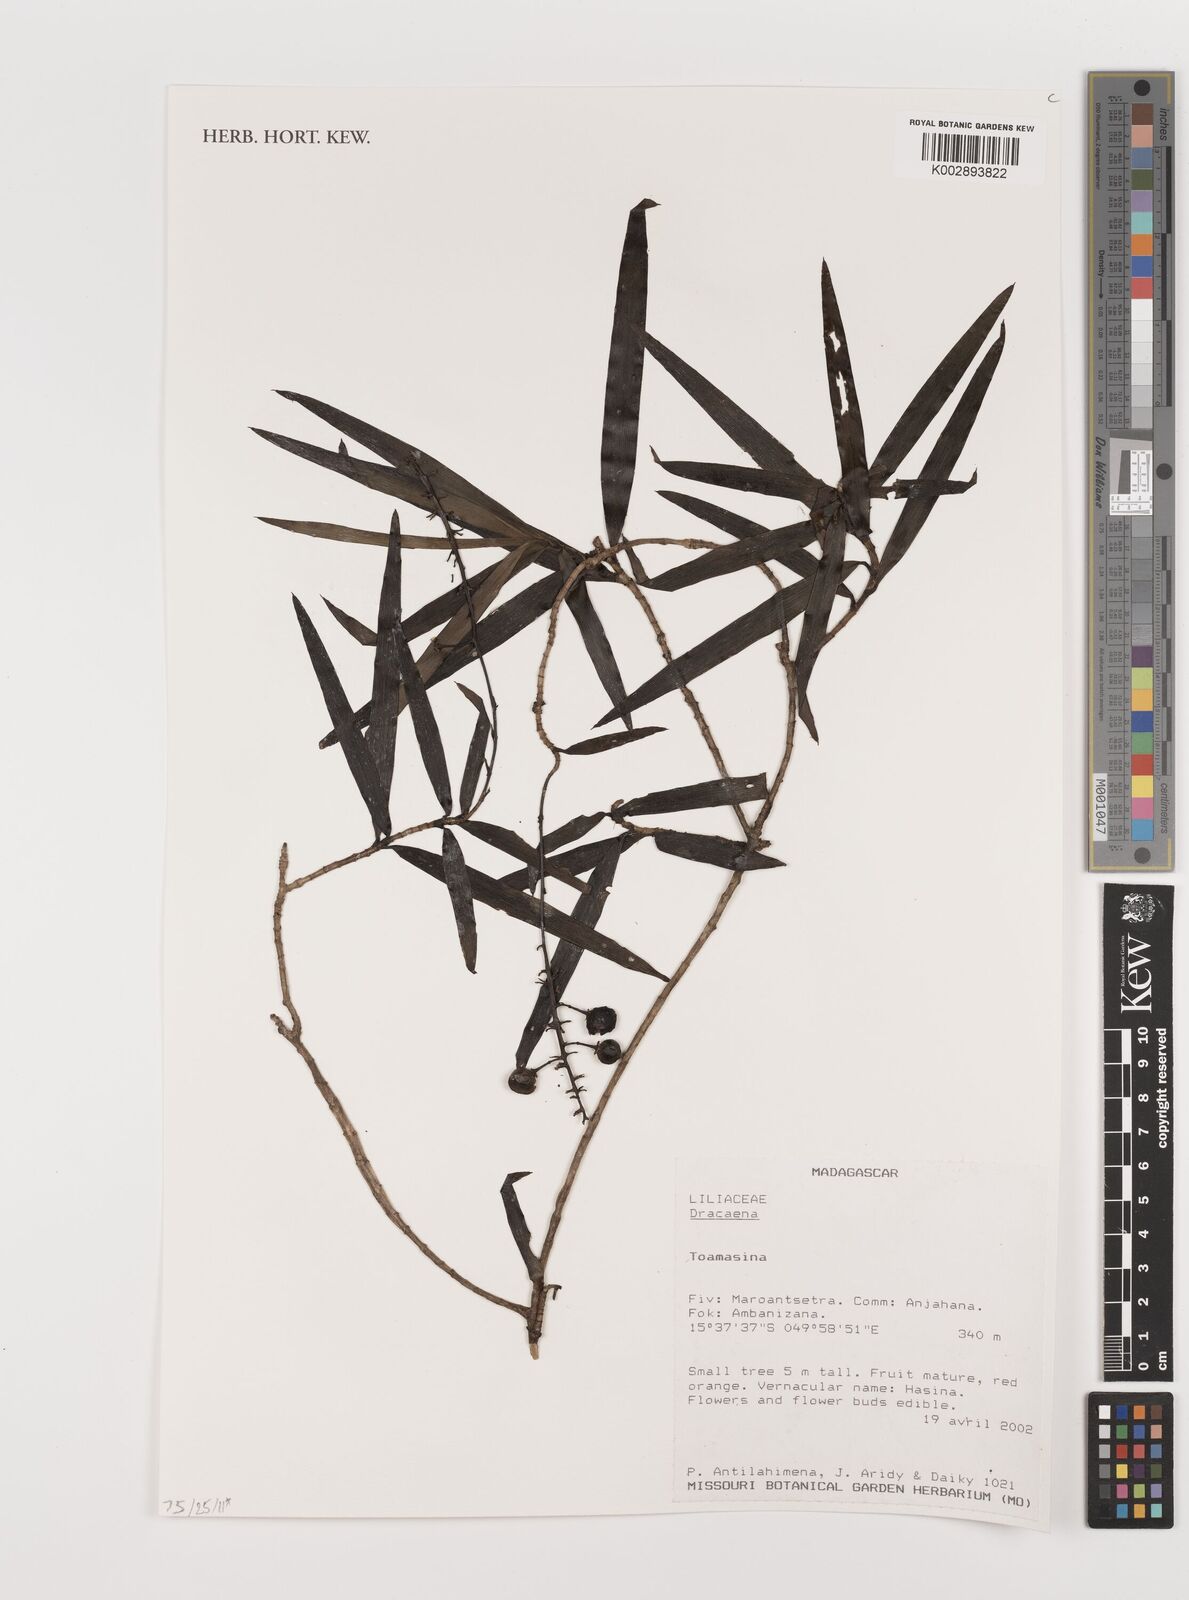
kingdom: Plantae
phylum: Tracheophyta
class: Liliopsida
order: Asparagales
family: Asparagaceae
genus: Dracaena
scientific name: Dracaena
